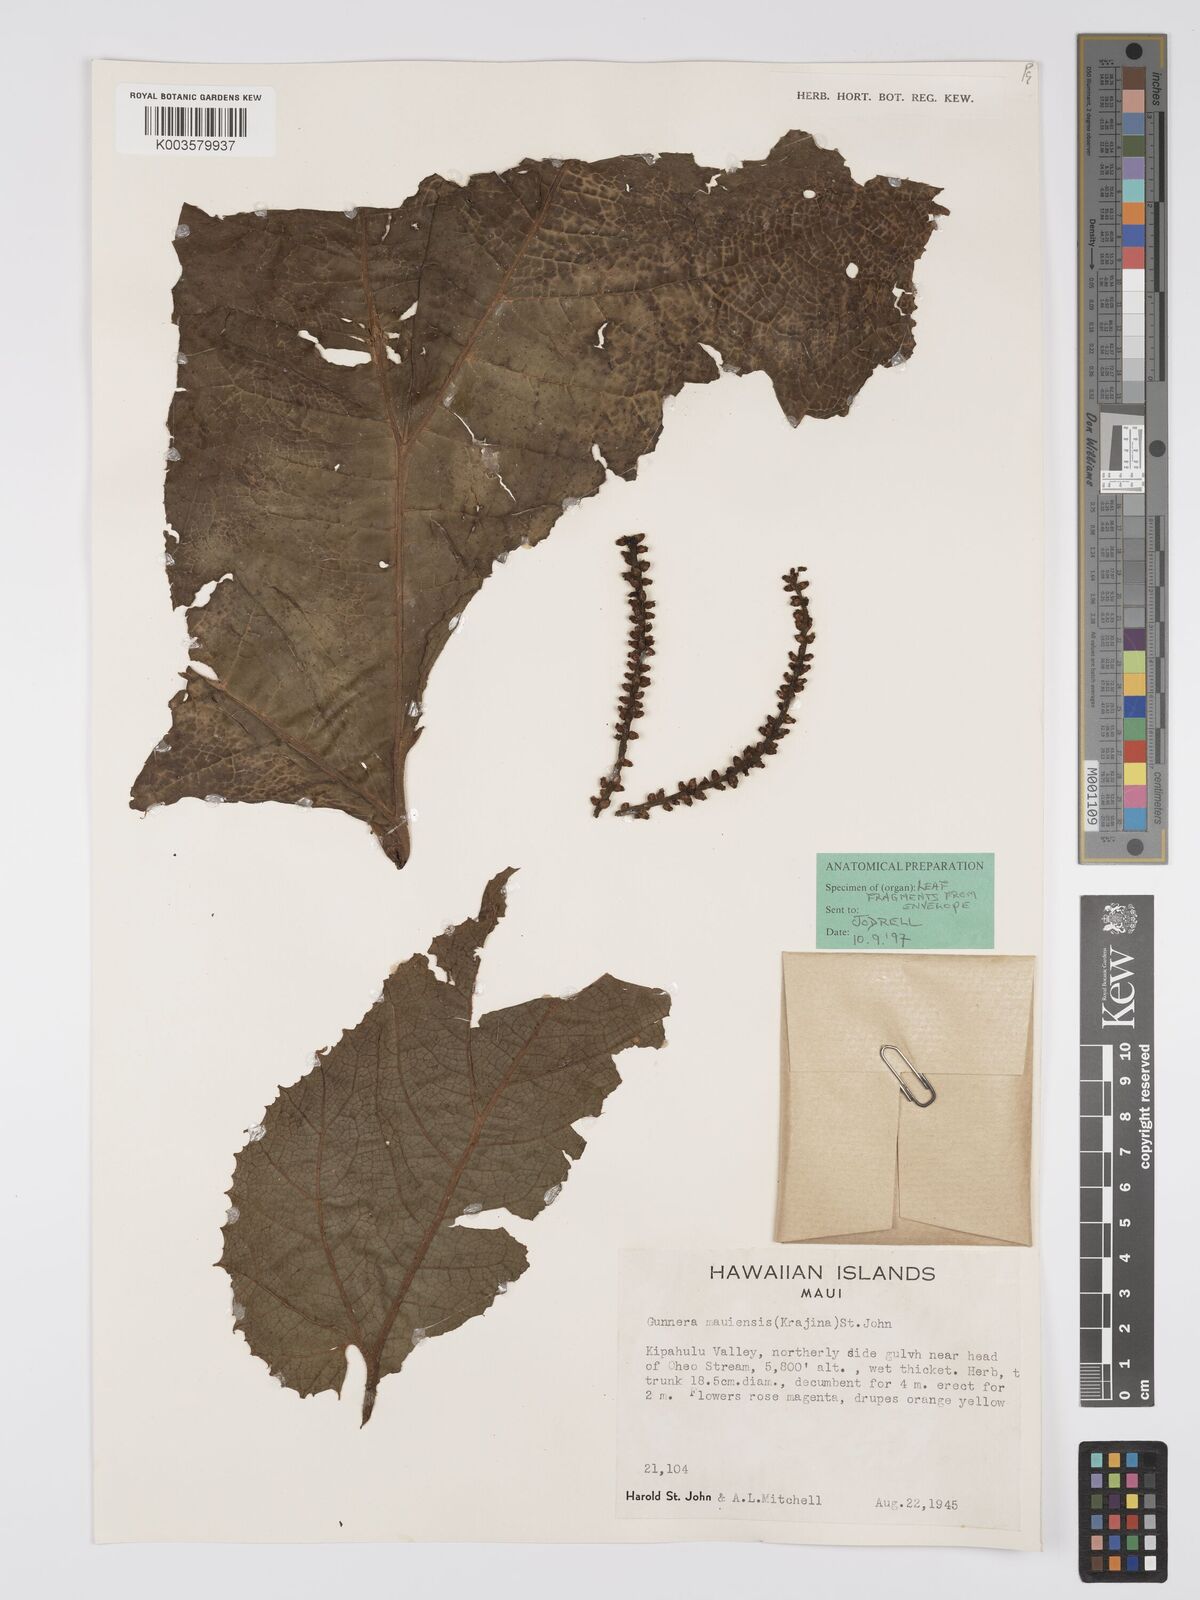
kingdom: Plantae
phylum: Tracheophyta
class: Magnoliopsida
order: Gunnerales
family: Gunneraceae
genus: Gunnera
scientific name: Gunnera petaloidea
